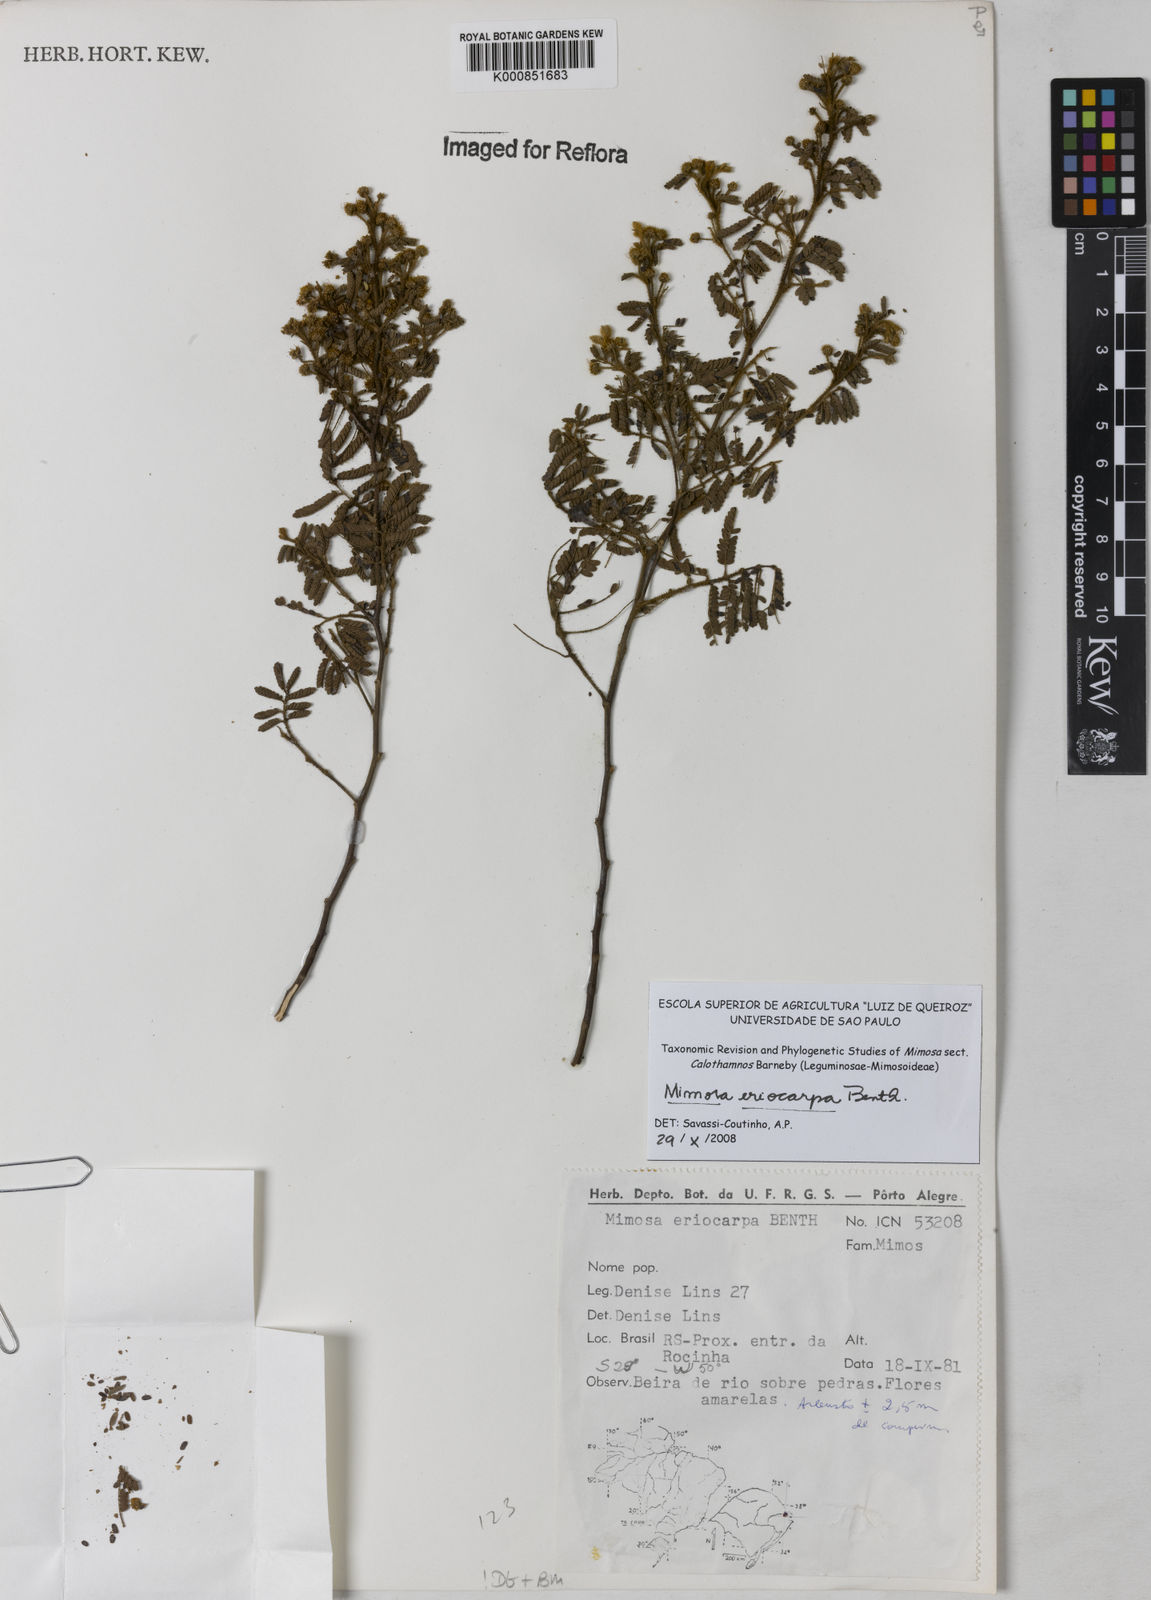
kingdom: Plantae
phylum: Tracheophyta
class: Magnoliopsida
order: Fabales
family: Fabaceae
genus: Mimosa
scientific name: Mimosa eriocarpa
